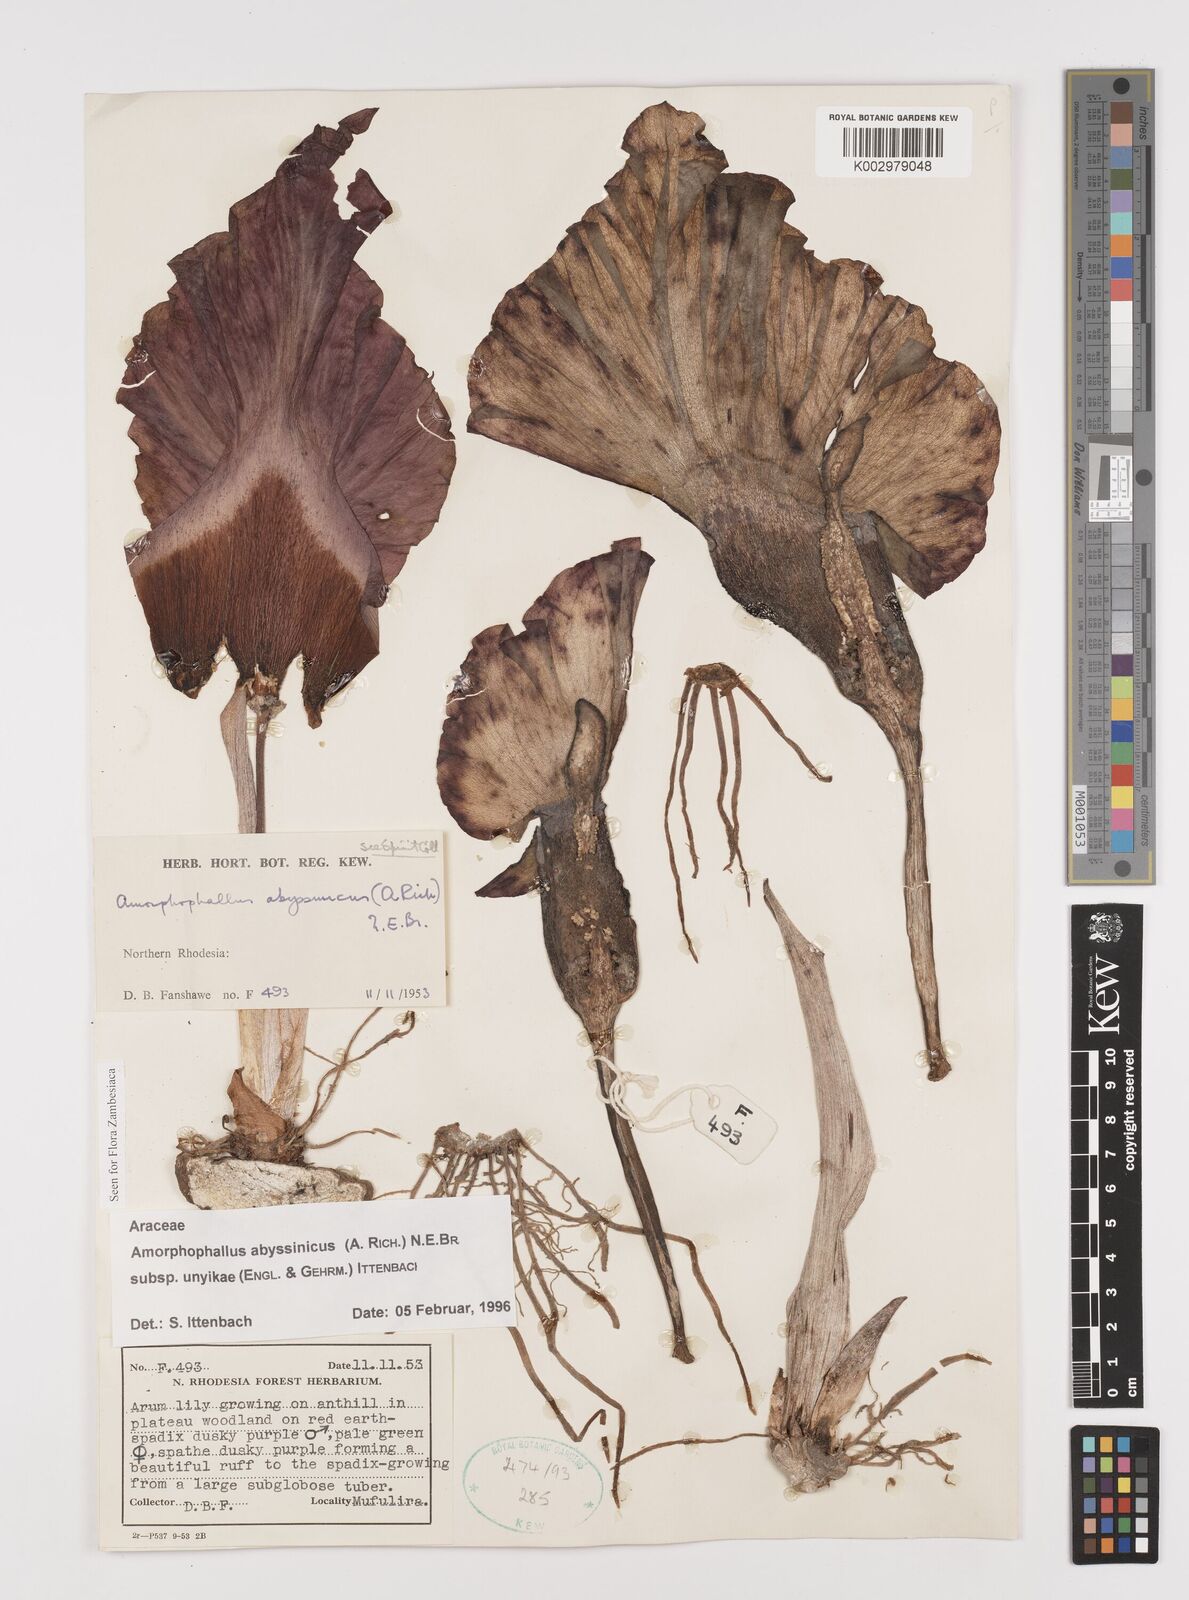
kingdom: Plantae
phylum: Tracheophyta
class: Liliopsida
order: Alismatales
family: Araceae
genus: Amorphophallus
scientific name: Amorphophallus abyssinicus
